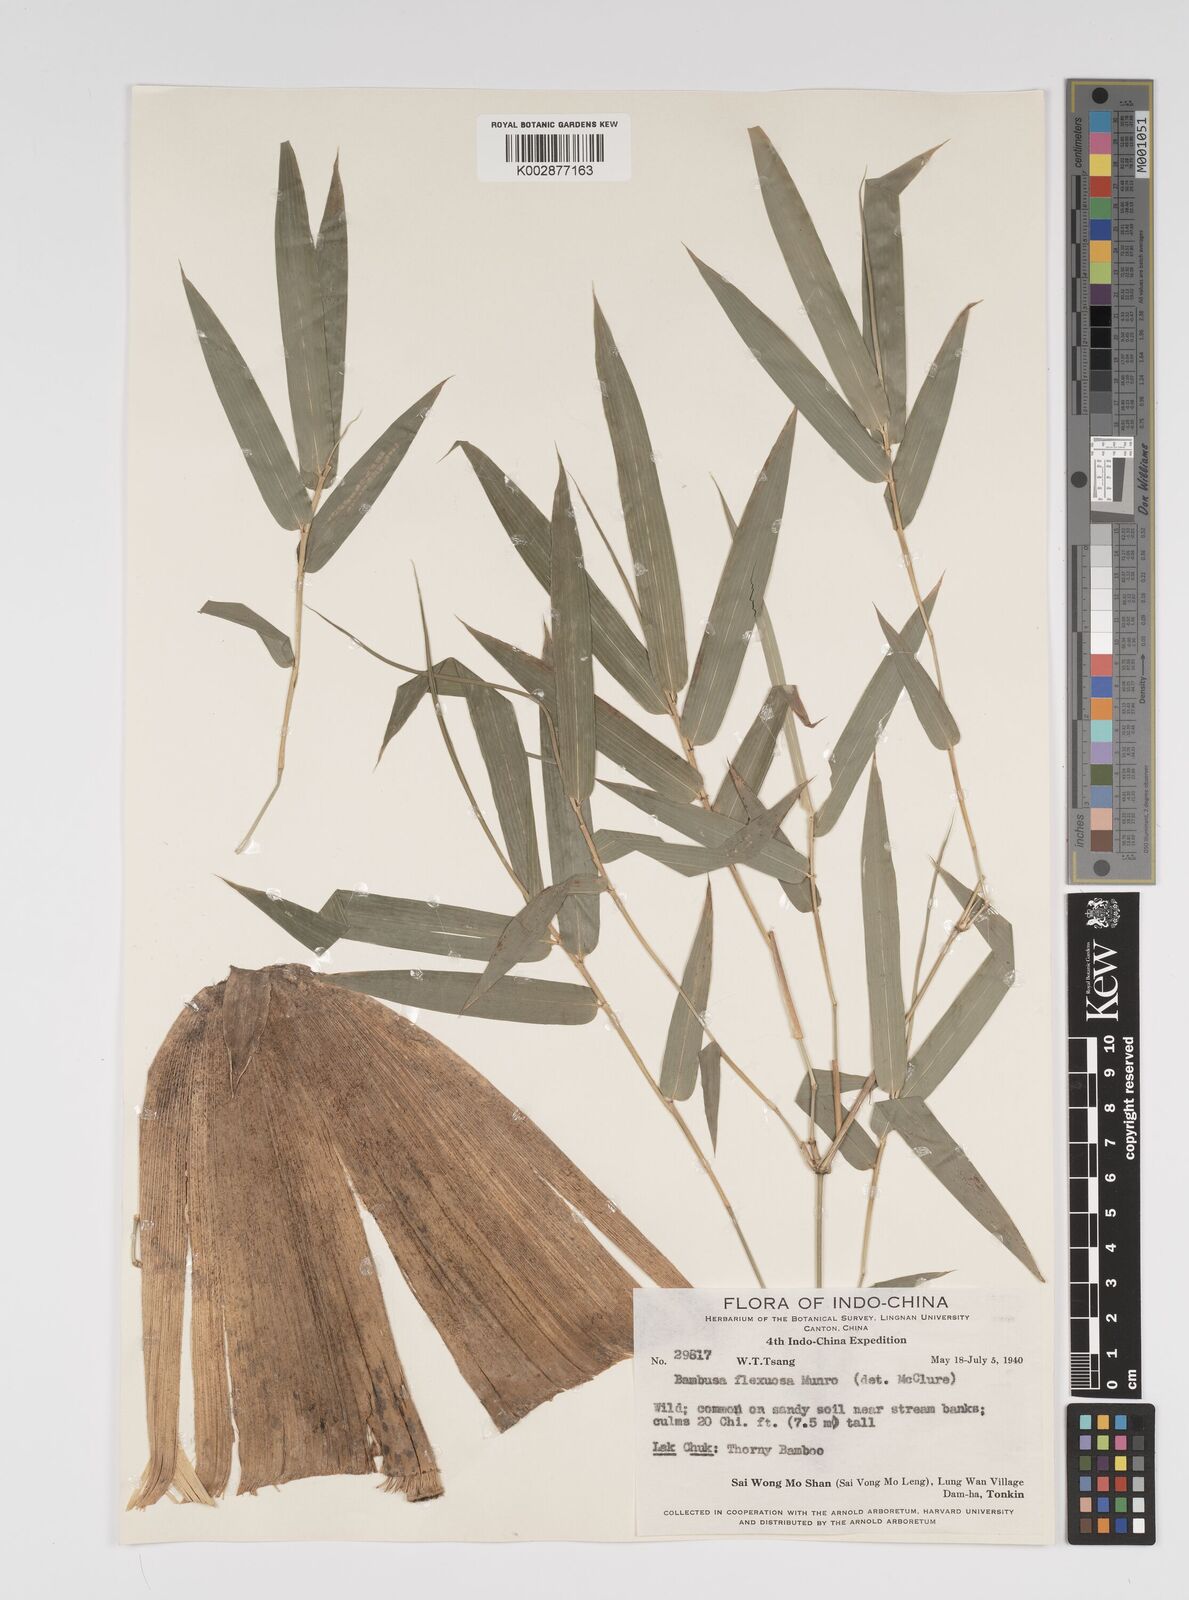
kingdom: Plantae
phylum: Tracheophyta
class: Liliopsida
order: Poales
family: Poaceae
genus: Bambusa
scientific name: Bambusa flexuosa
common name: Lesser thorny bamboo
